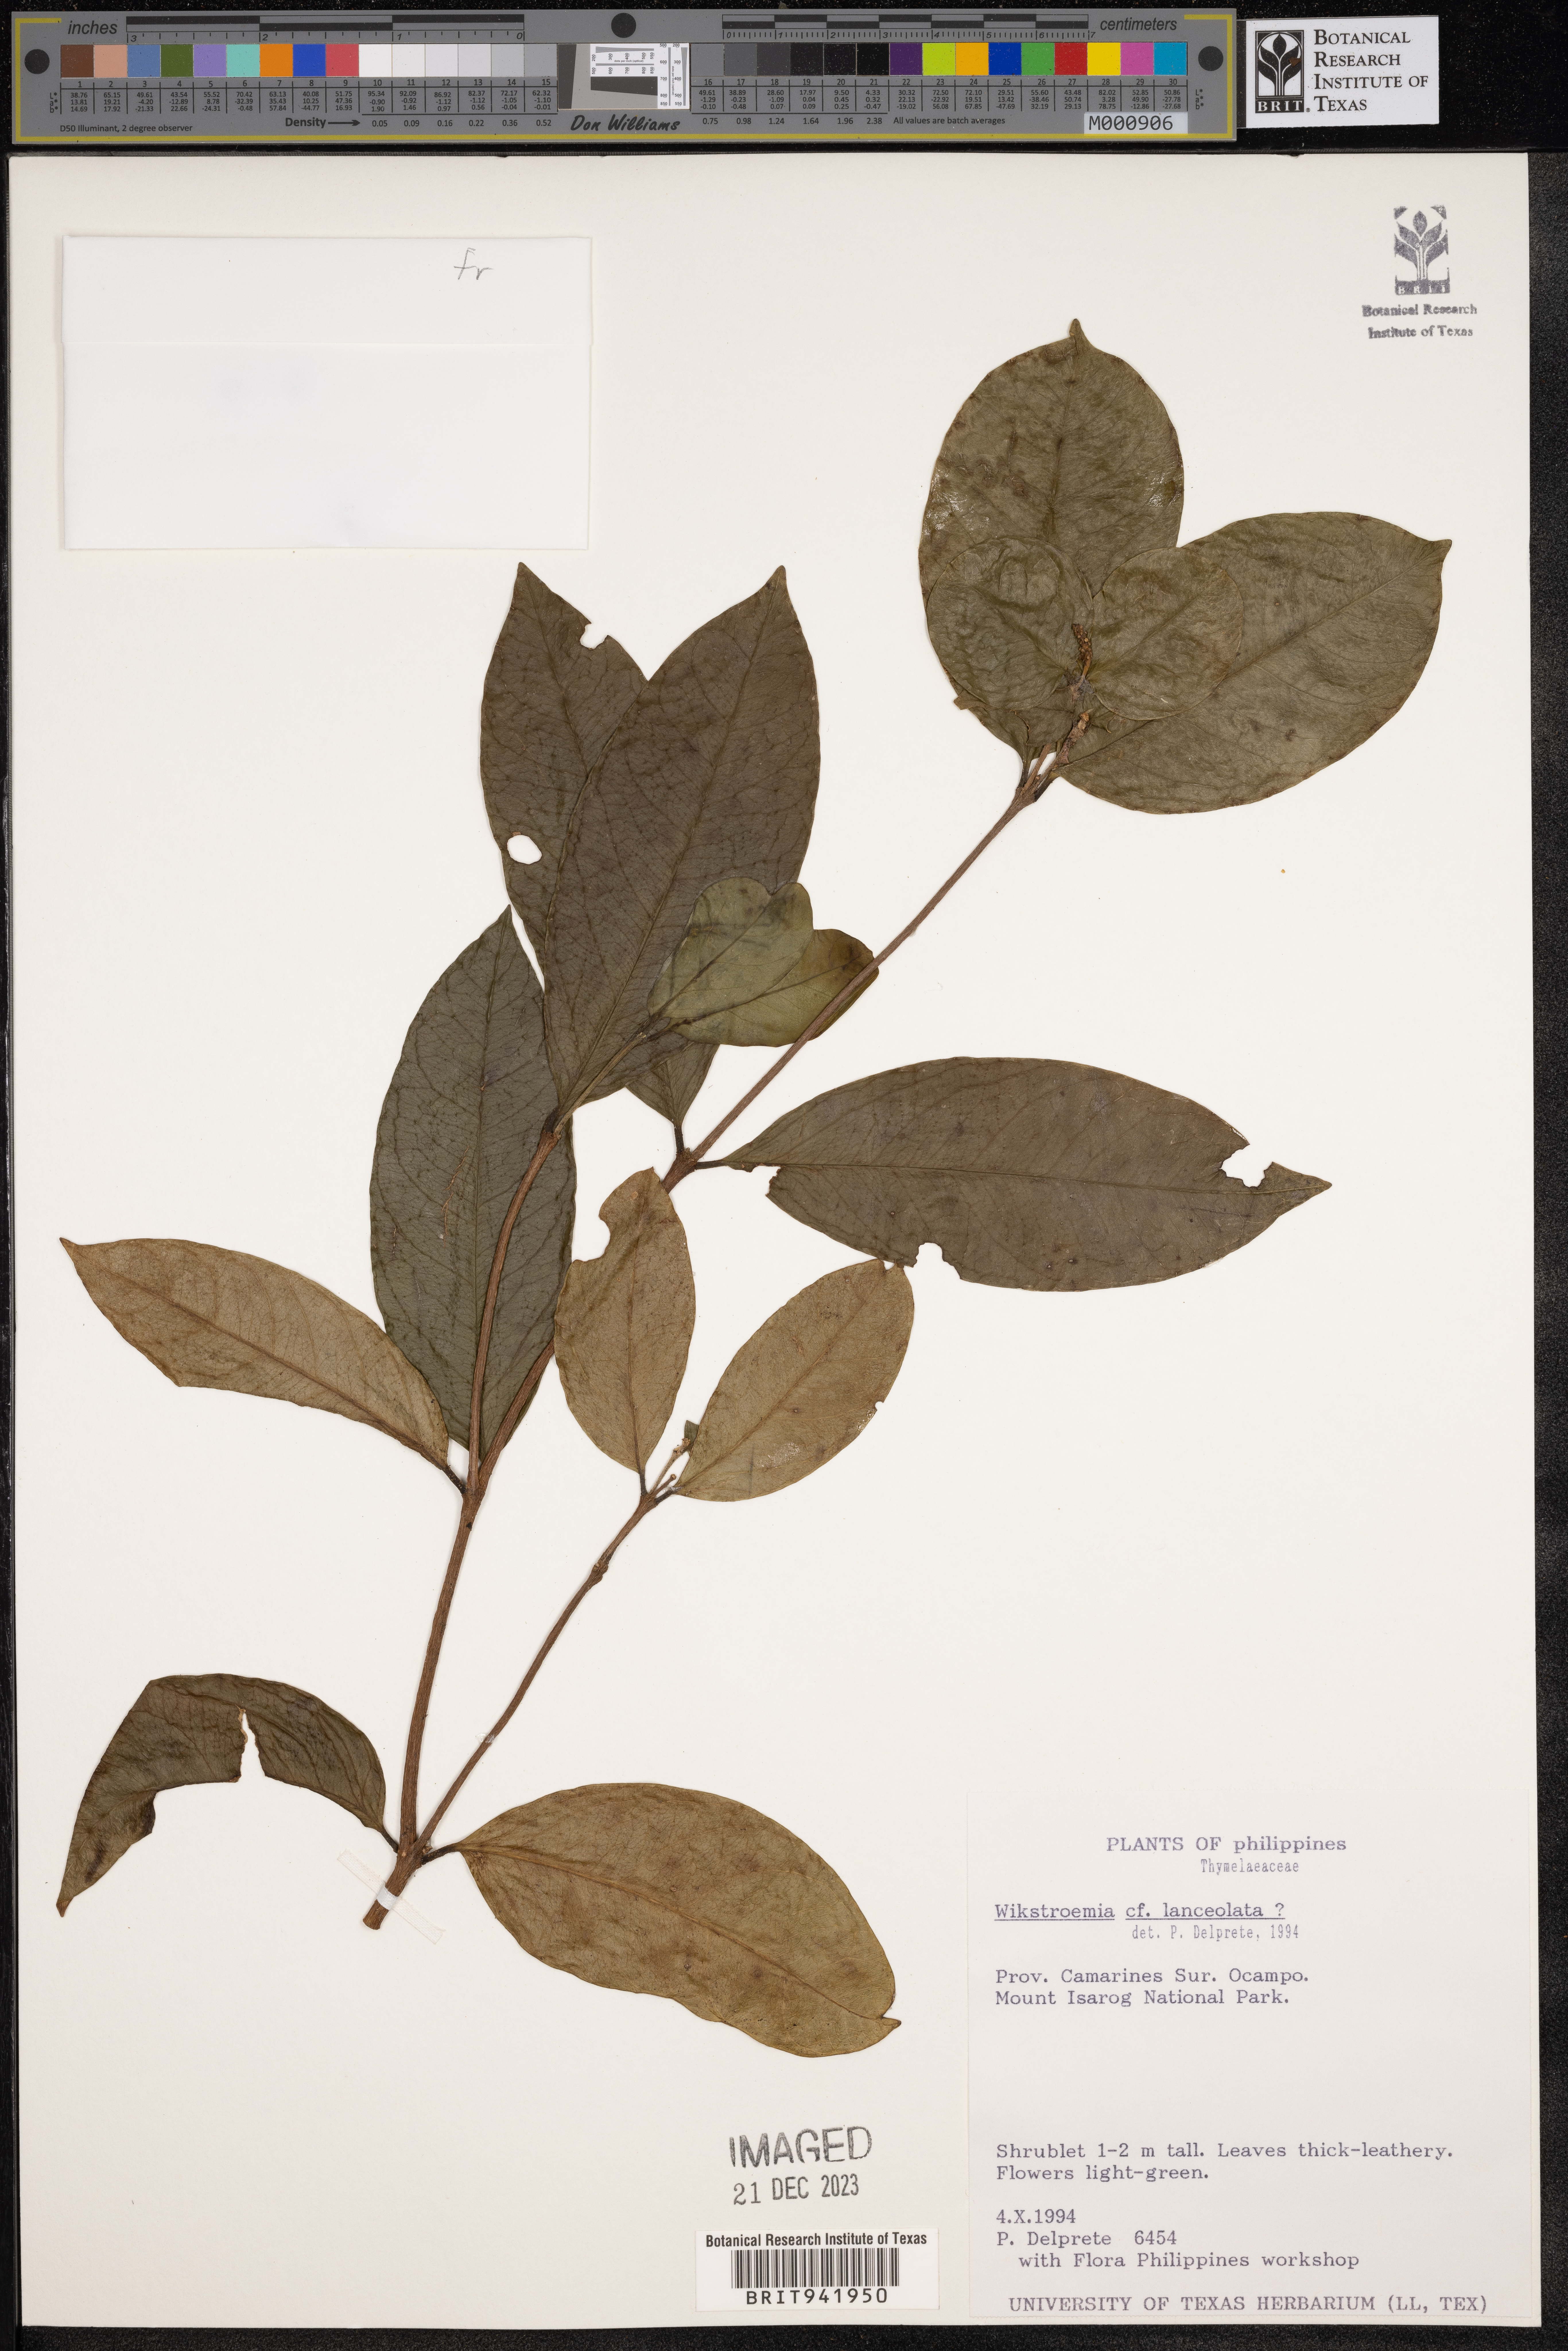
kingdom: Plantae
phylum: Tracheophyta
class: Magnoliopsida
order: Malvales
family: Thymelaeaceae
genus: Wikstroemia
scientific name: Wikstroemia
